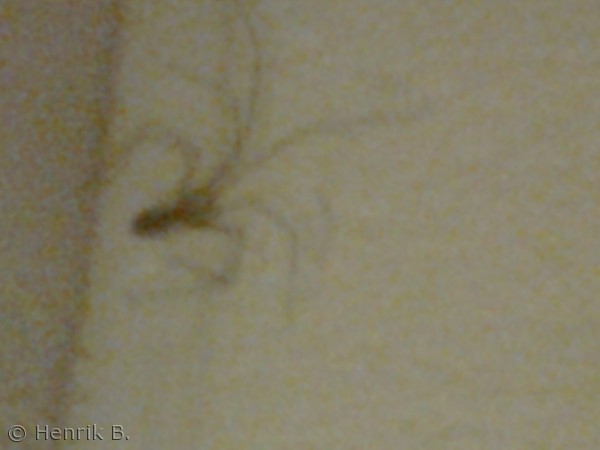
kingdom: Animalia
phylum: Arthropoda
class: Arachnida
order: Araneae
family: Pholcidae
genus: Pholcus
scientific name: Pholcus phalangioides
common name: Mejeredderkop
